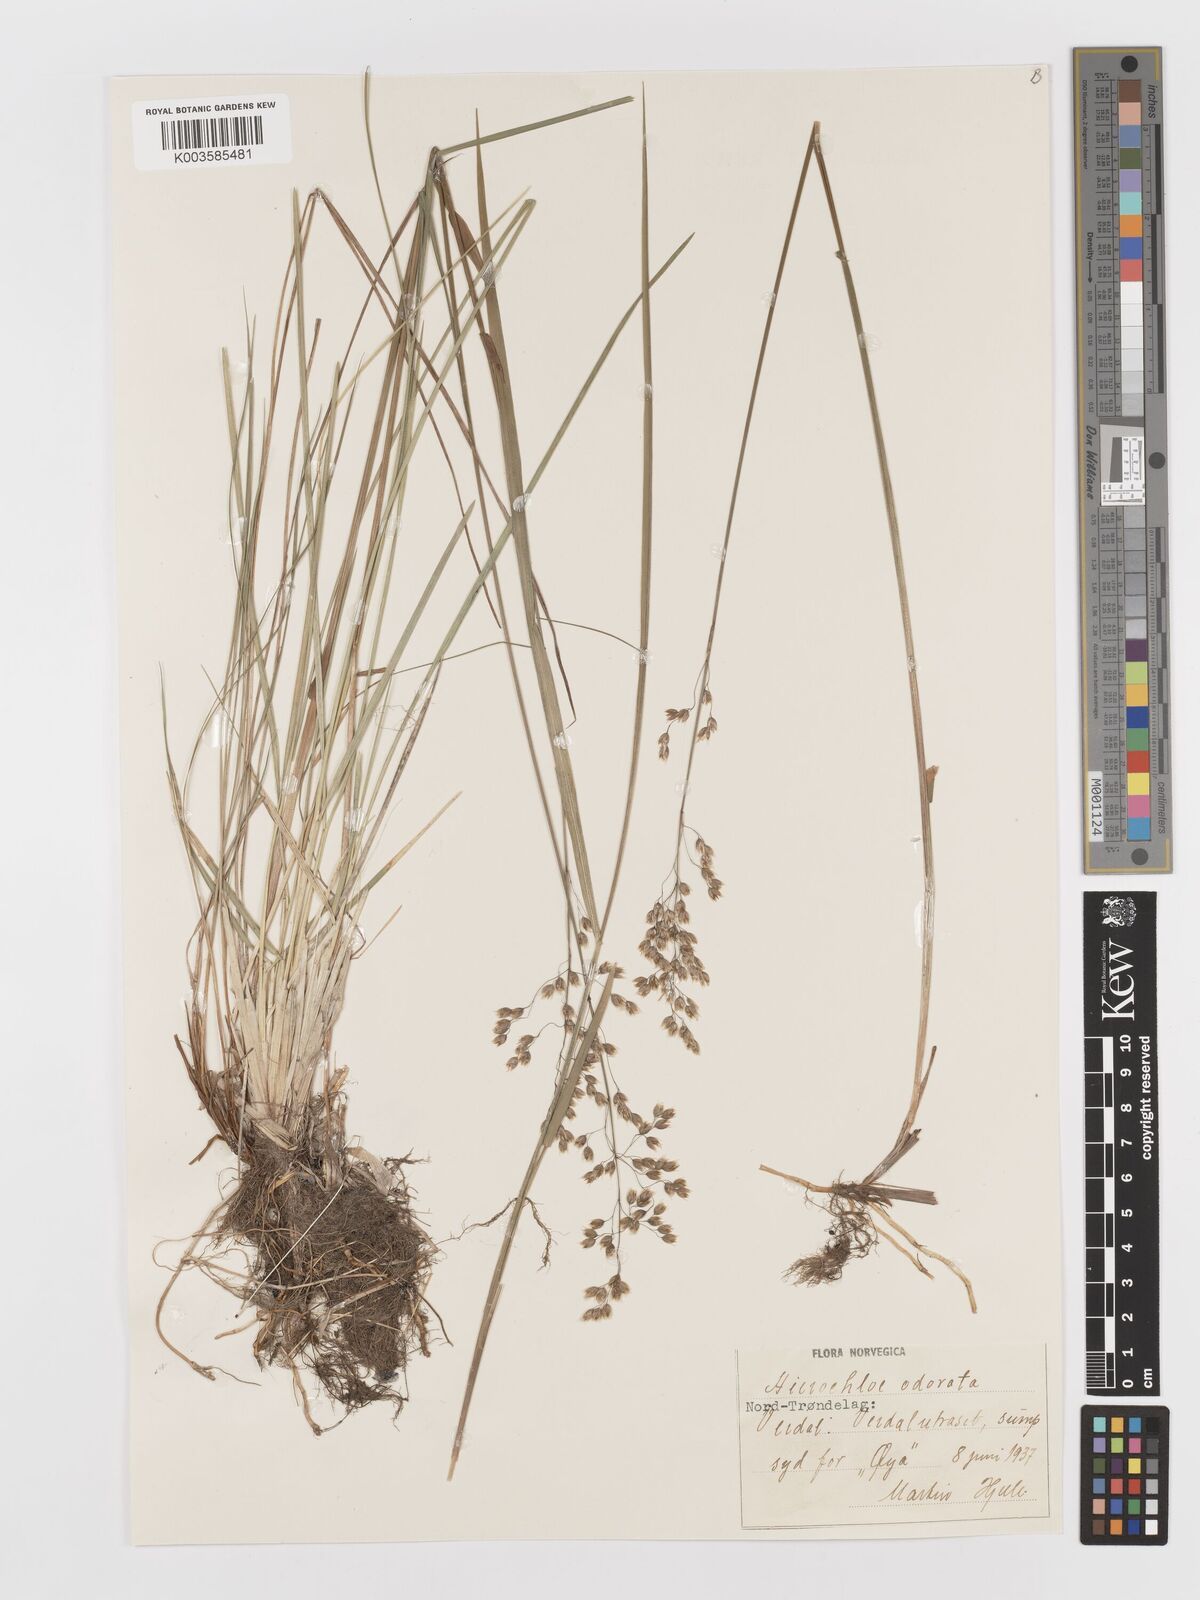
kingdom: Plantae
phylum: Tracheophyta
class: Liliopsida
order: Poales
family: Poaceae
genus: Anthoxanthum
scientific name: Anthoxanthum nitens
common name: Holy grass
